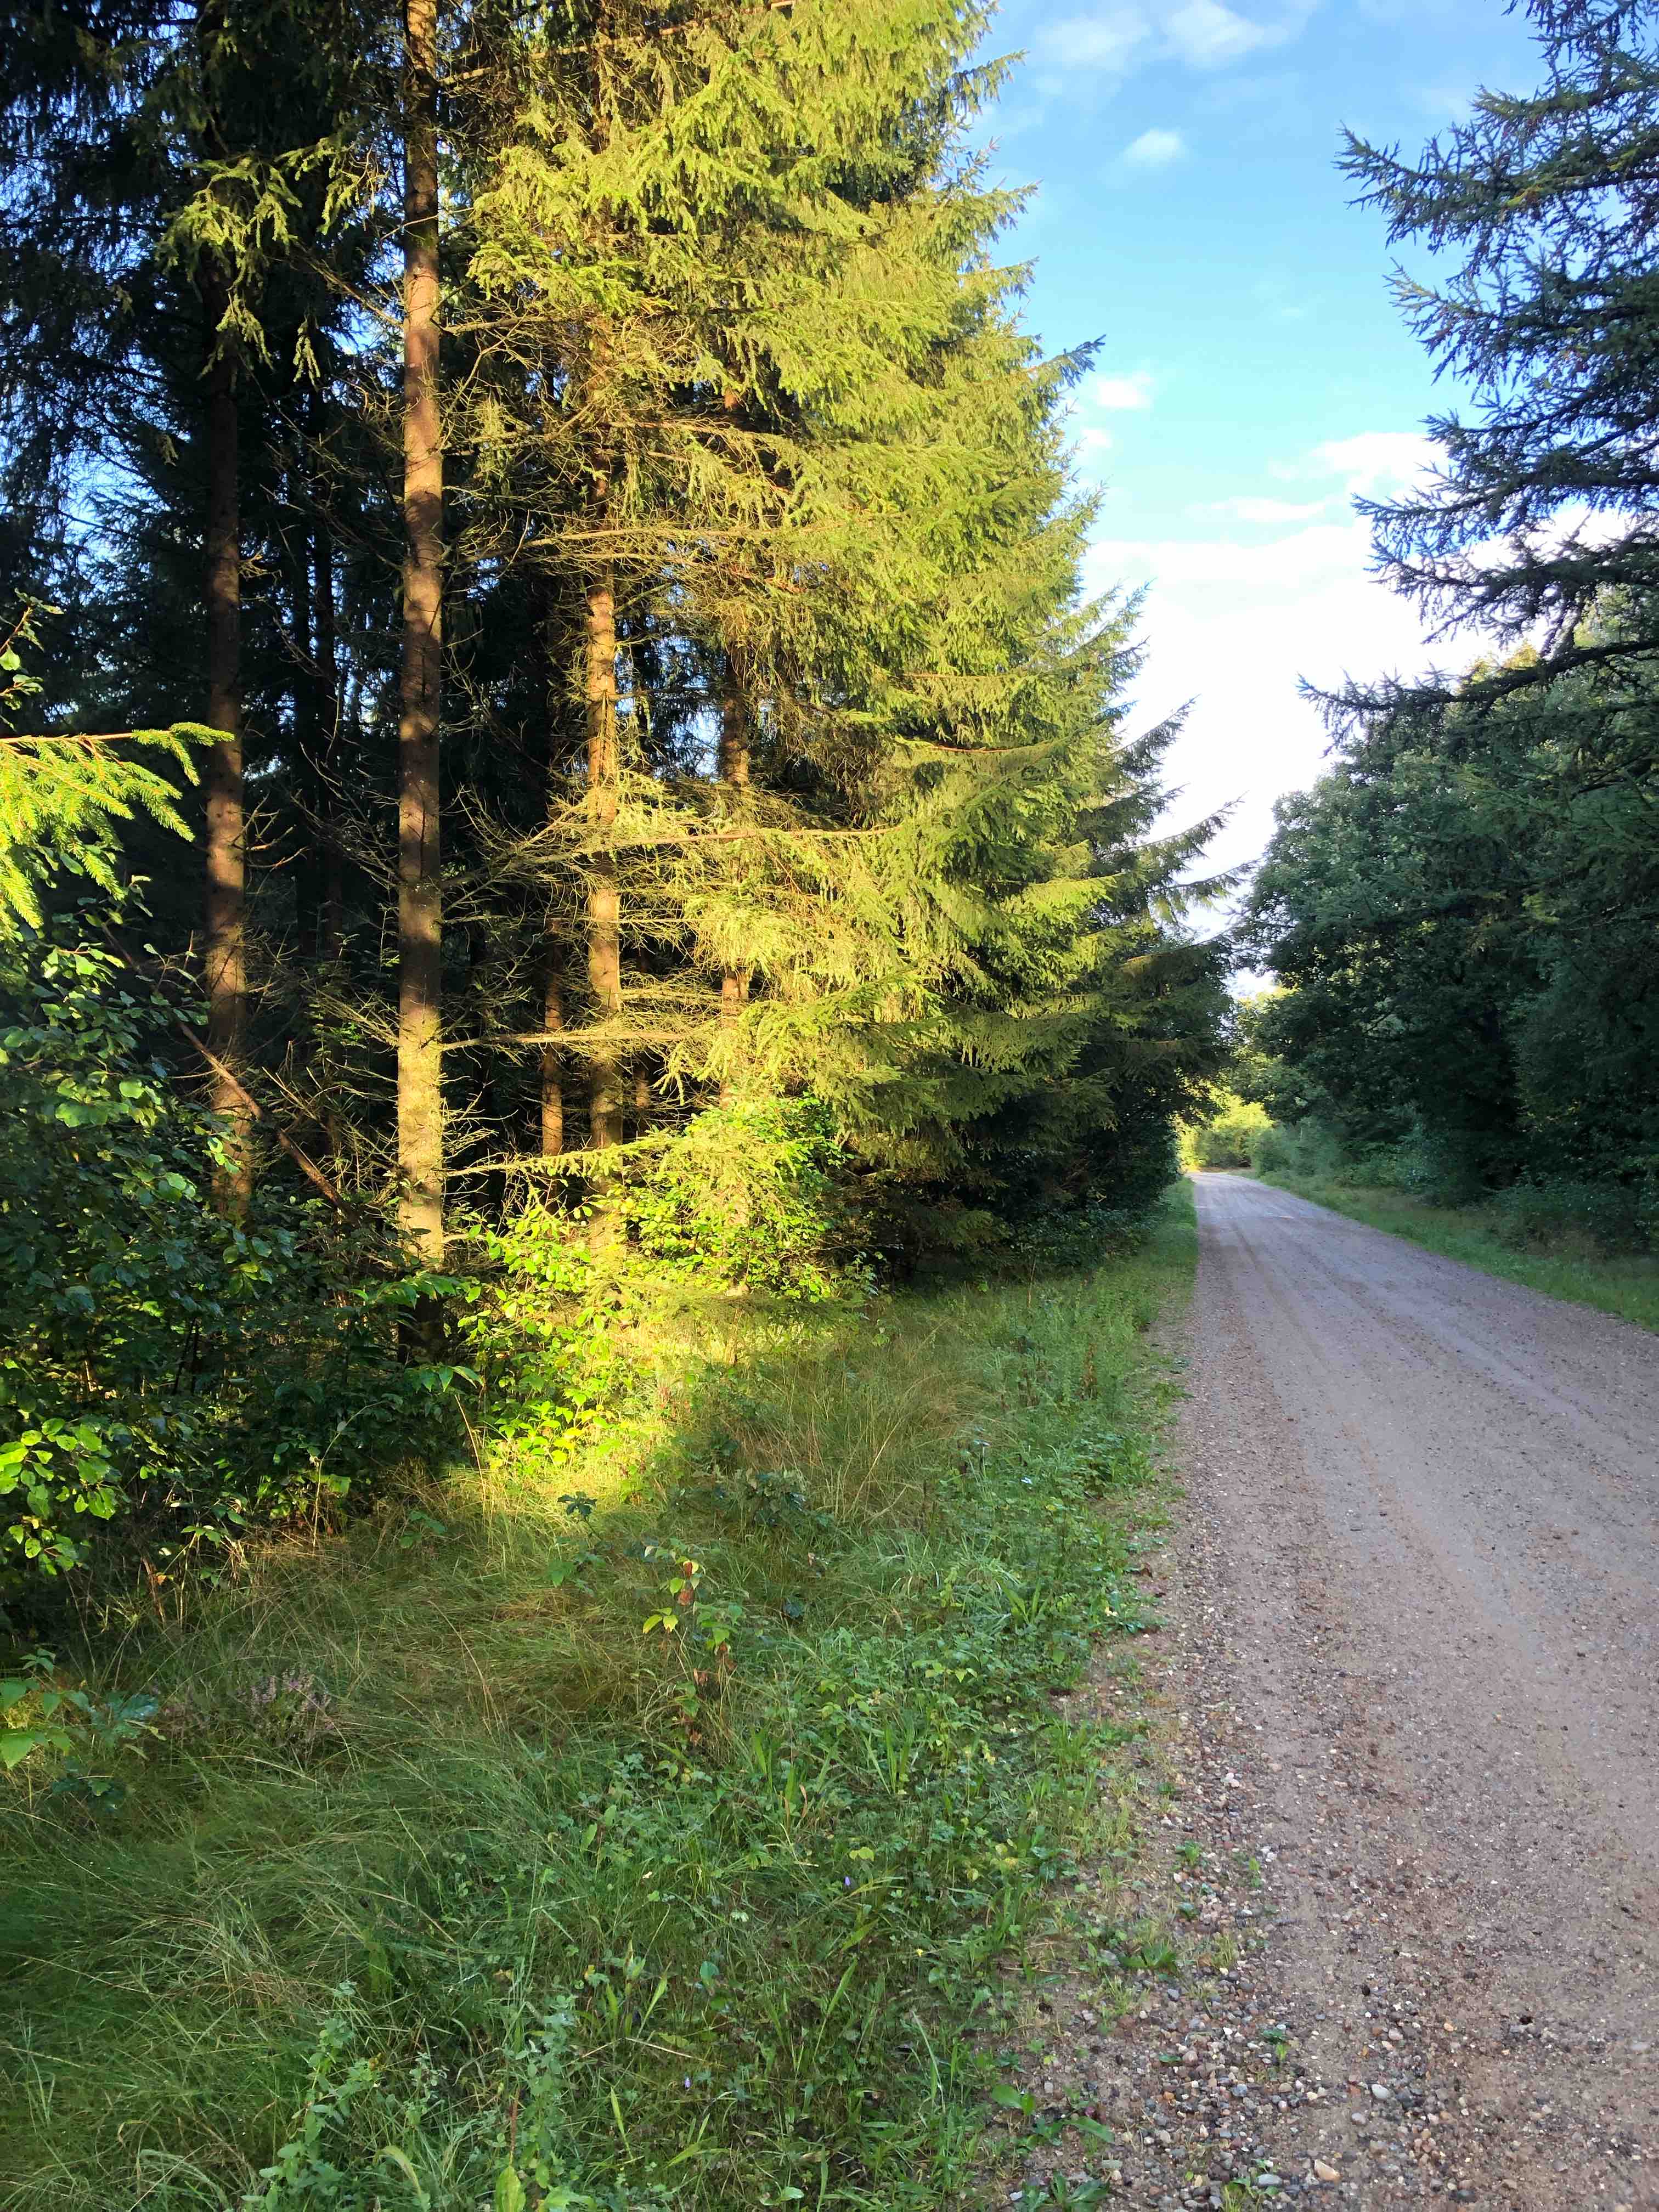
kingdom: Fungi
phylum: Basidiomycota
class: Agaricomycetes
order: Russulales
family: Russulaceae
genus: Russula
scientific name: Russula queletii
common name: Quélets skørhat
